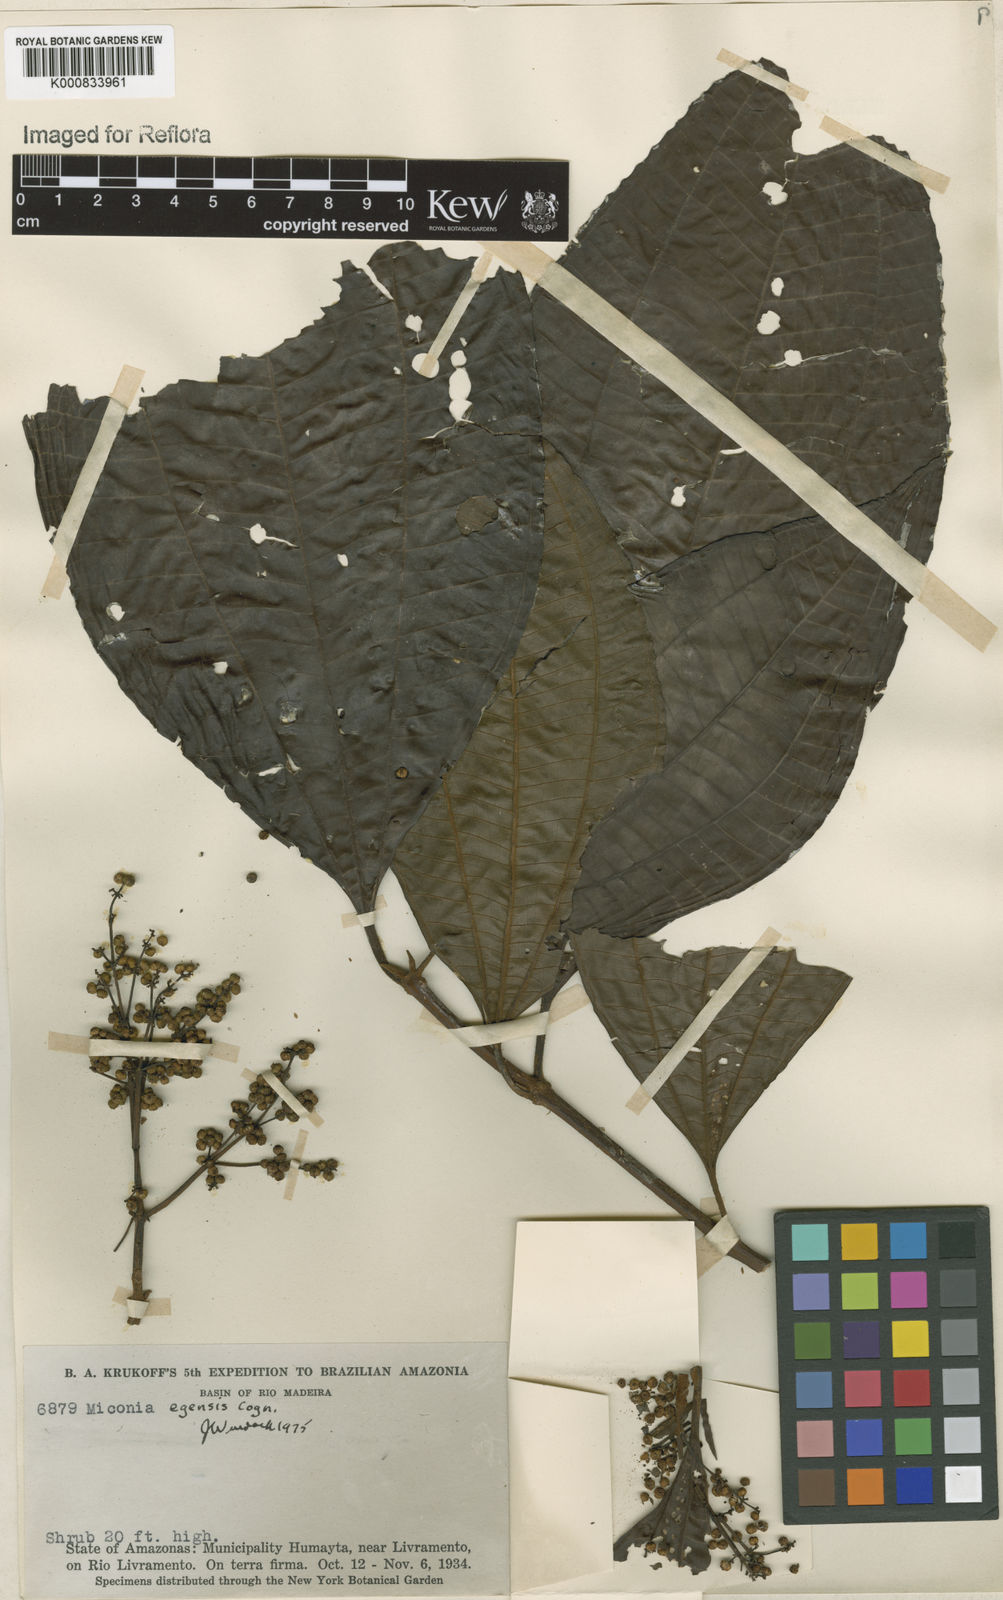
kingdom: Plantae
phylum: Tracheophyta
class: Magnoliopsida
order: Myrtales
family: Melastomataceae
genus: Miconia
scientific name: Miconia egensis
